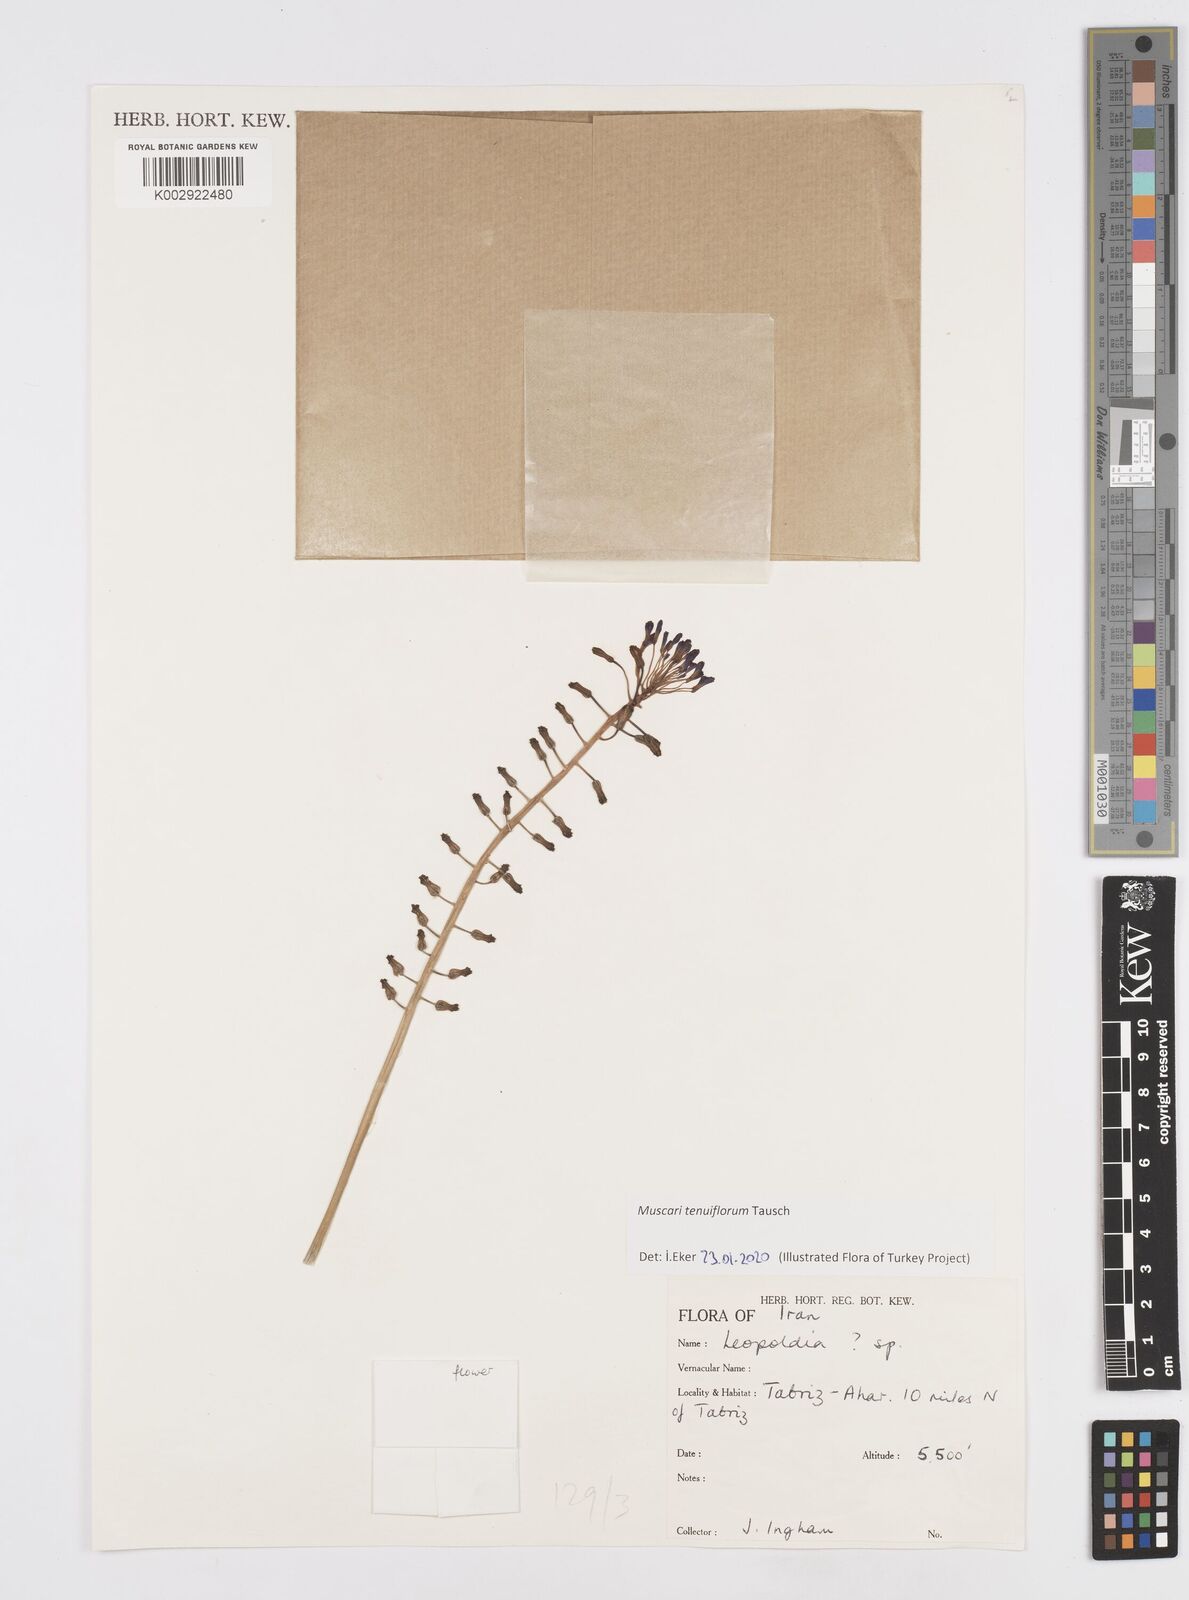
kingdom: Animalia
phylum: Mollusca
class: Cephalopoda
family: Neocomitidae
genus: Leopoldia
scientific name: Leopoldia
